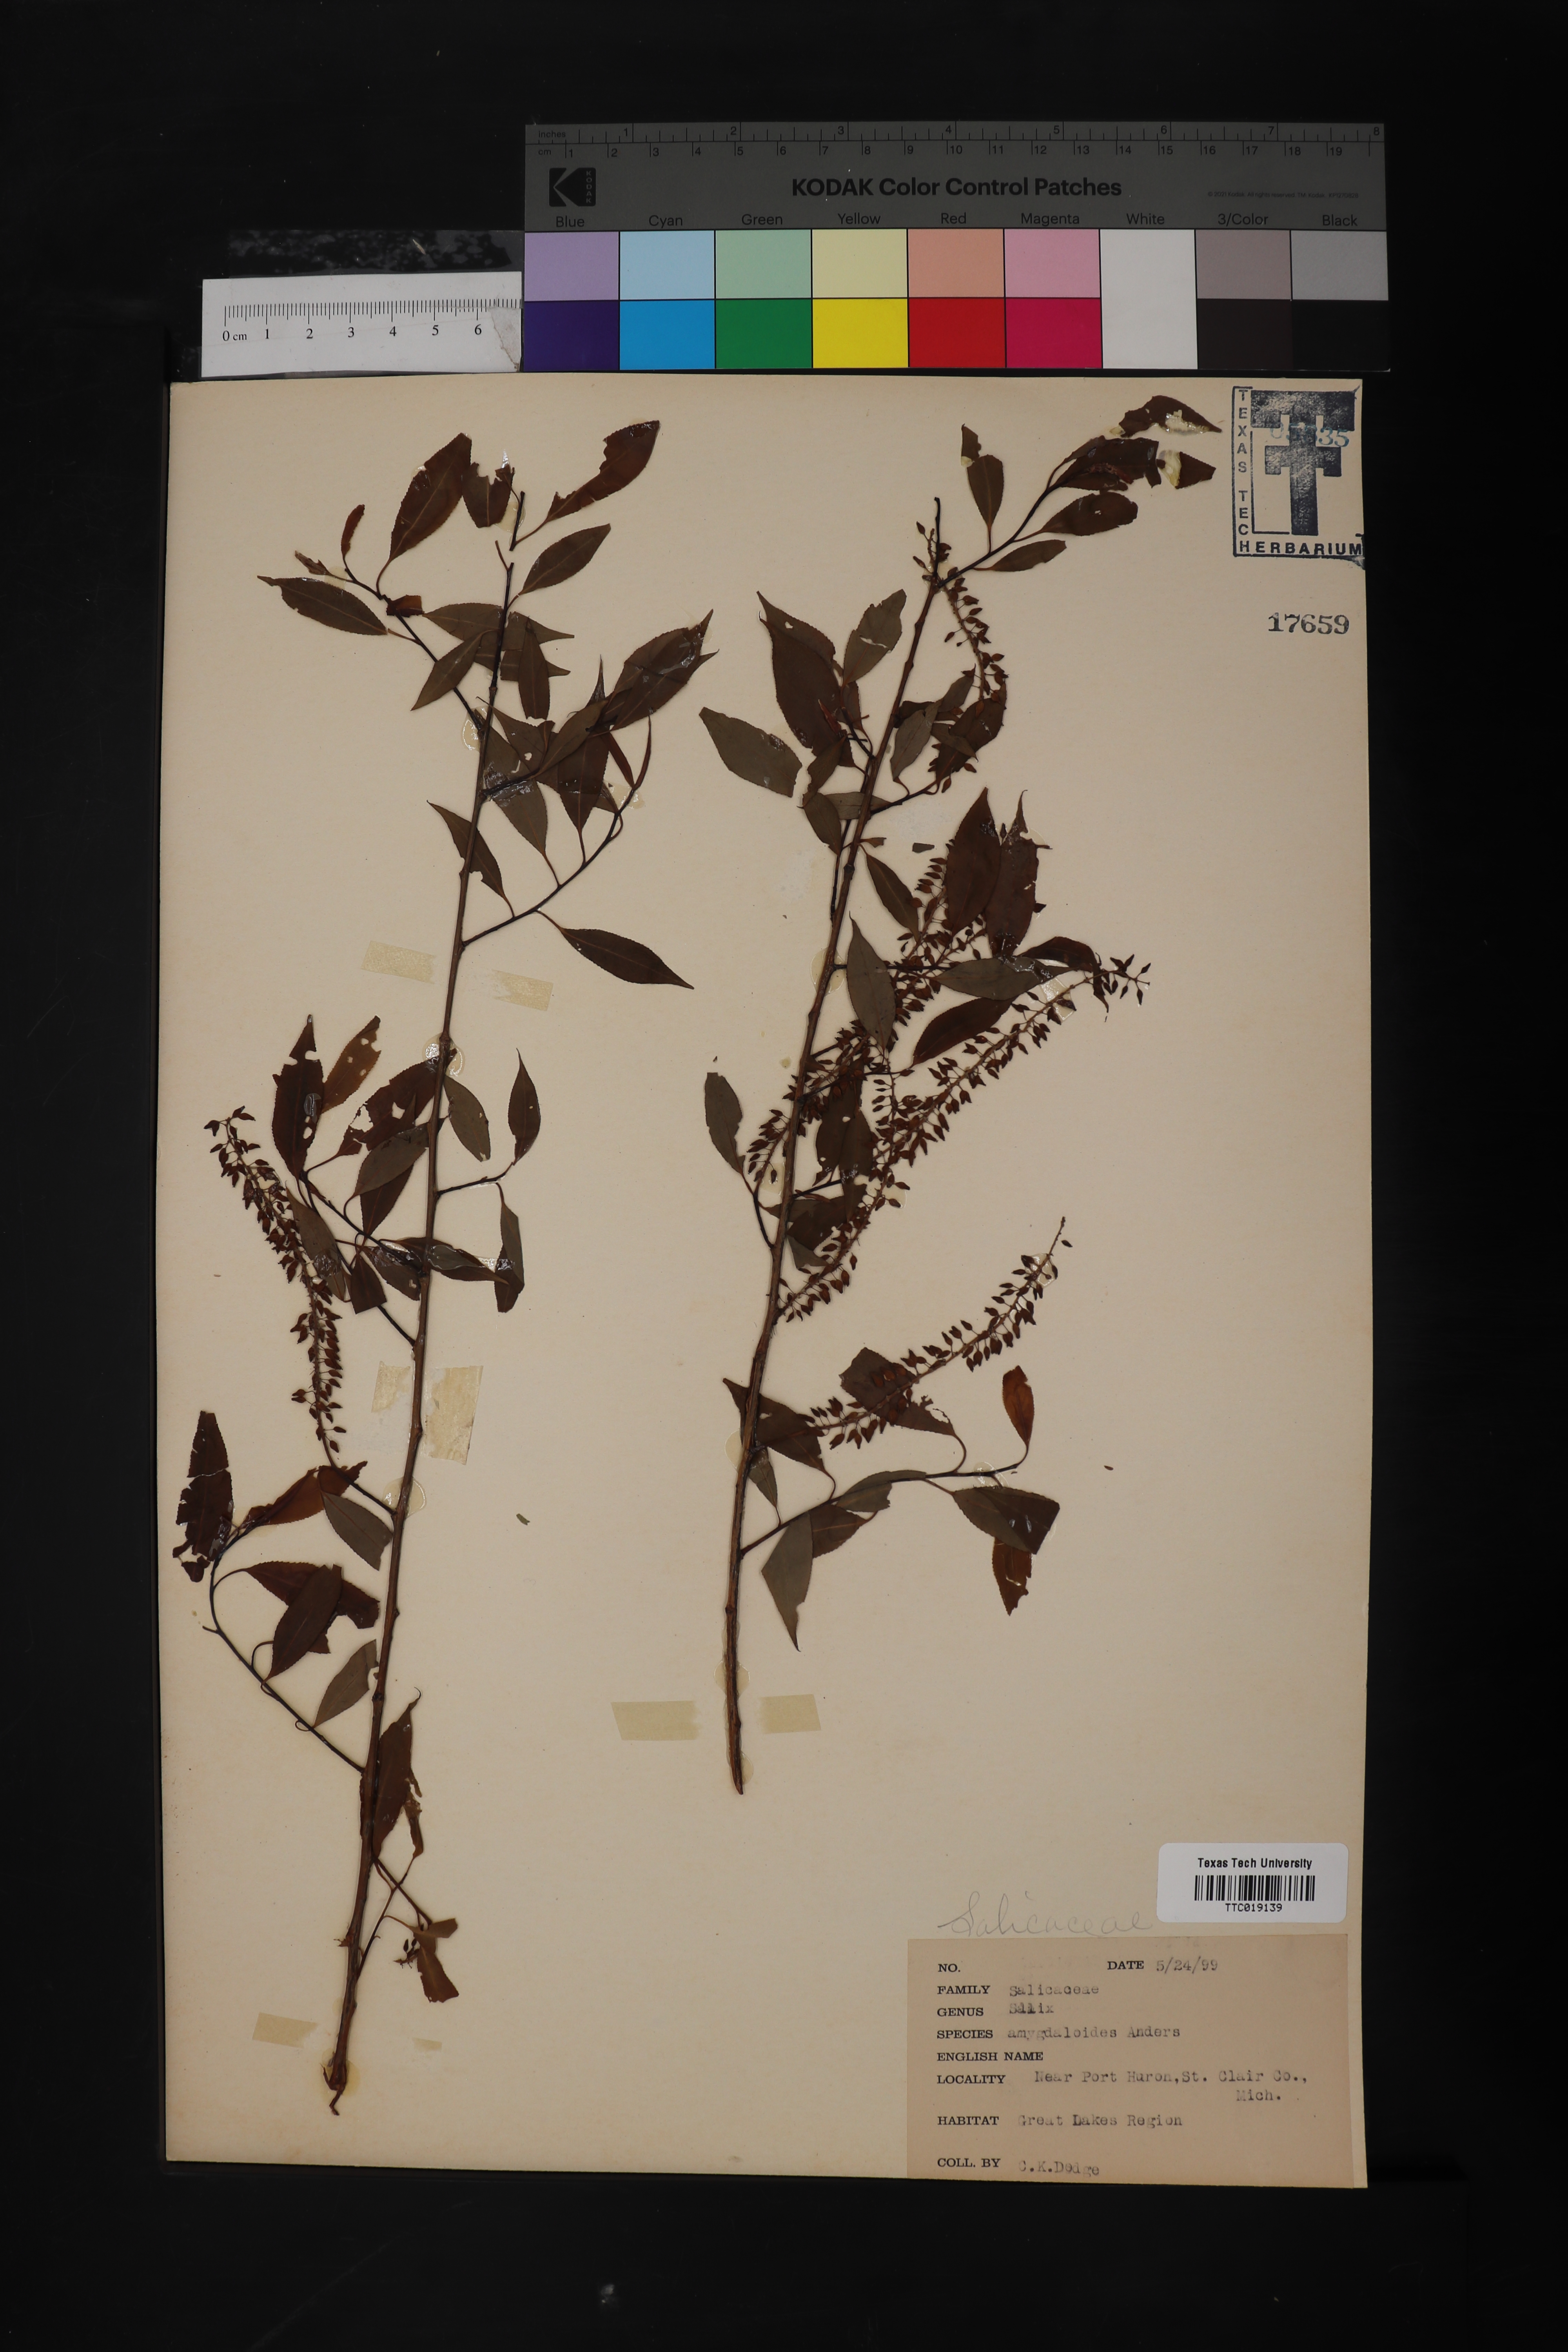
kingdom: Plantae
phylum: Tracheophyta
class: Magnoliopsida
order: Malpighiales
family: Salicaceae
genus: Salix
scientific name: Salix amygdaloides
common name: Peach leaf willow
